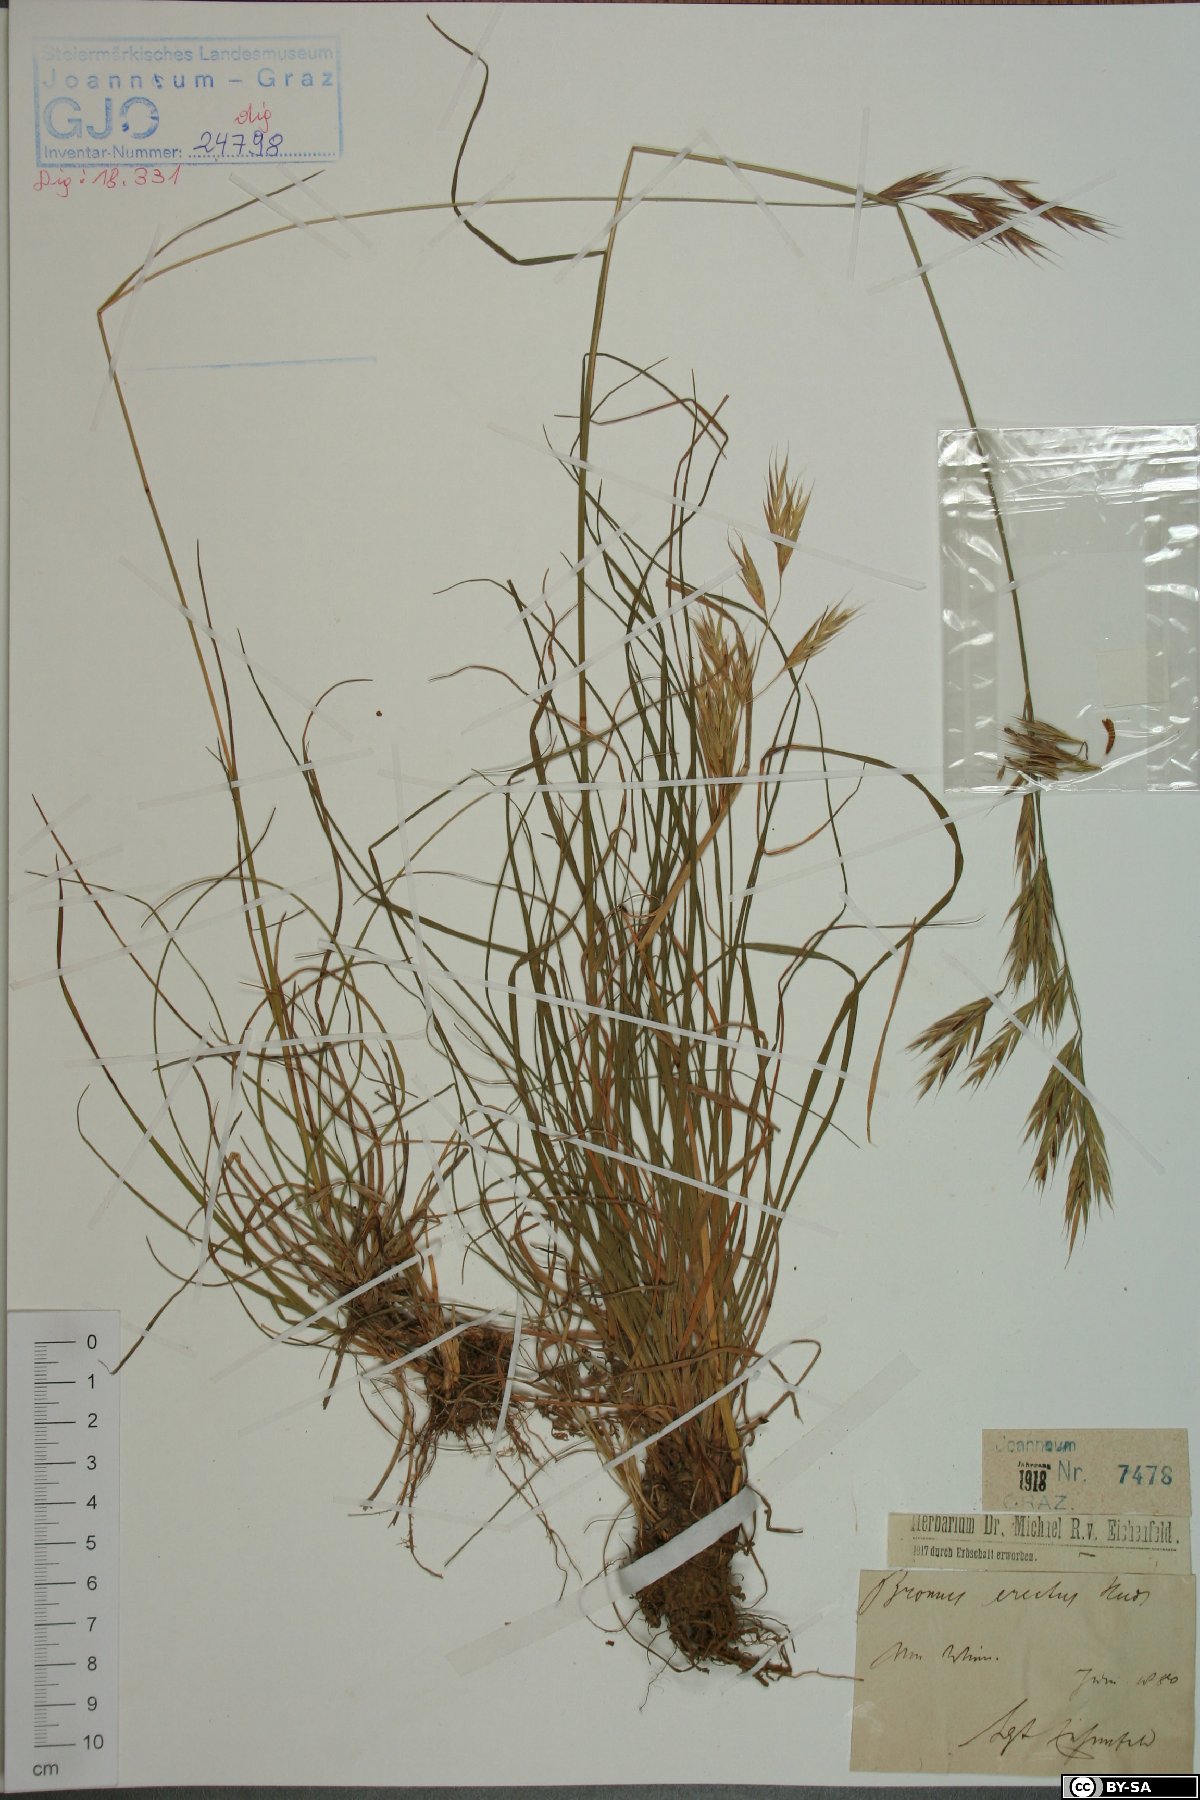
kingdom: Plantae
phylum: Tracheophyta
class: Liliopsida
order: Poales
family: Poaceae
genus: Bromus
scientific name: Bromus erectus
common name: Erect brome
